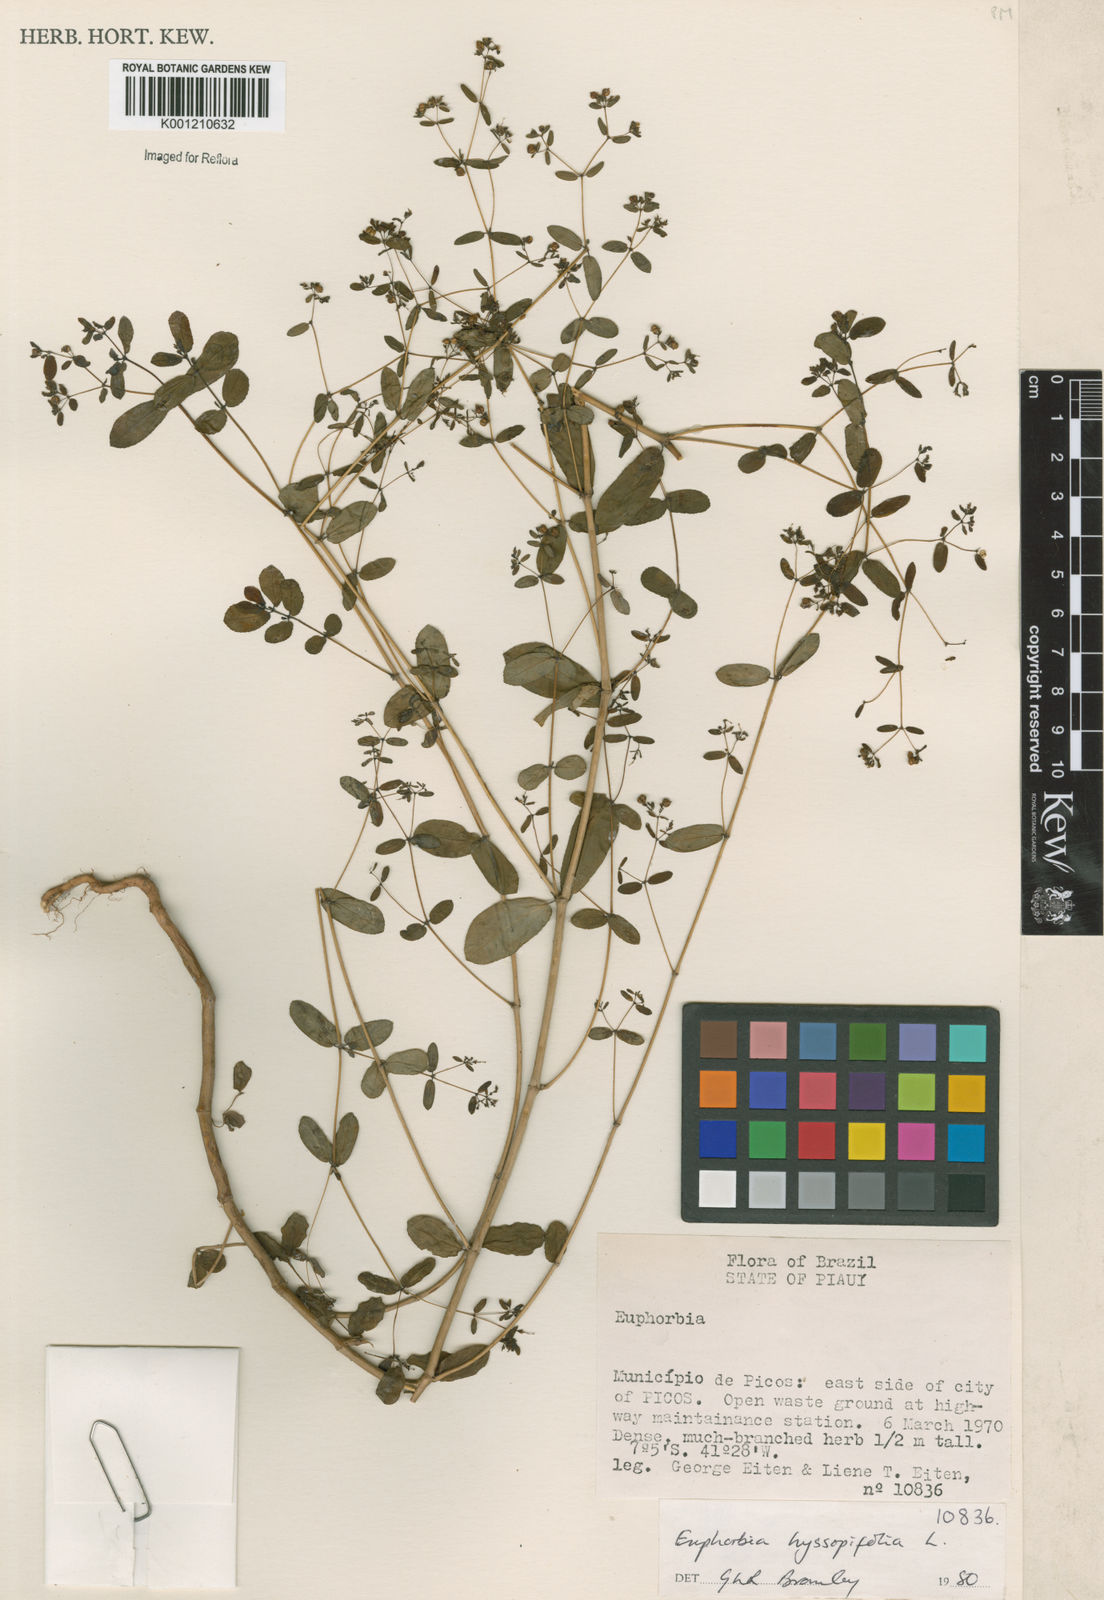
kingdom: Plantae
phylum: Tracheophyta
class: Magnoliopsida
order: Malpighiales
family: Euphorbiaceae
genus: Euphorbia
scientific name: Euphorbia hyssopifolia
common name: Hyssopleaf sandmat
